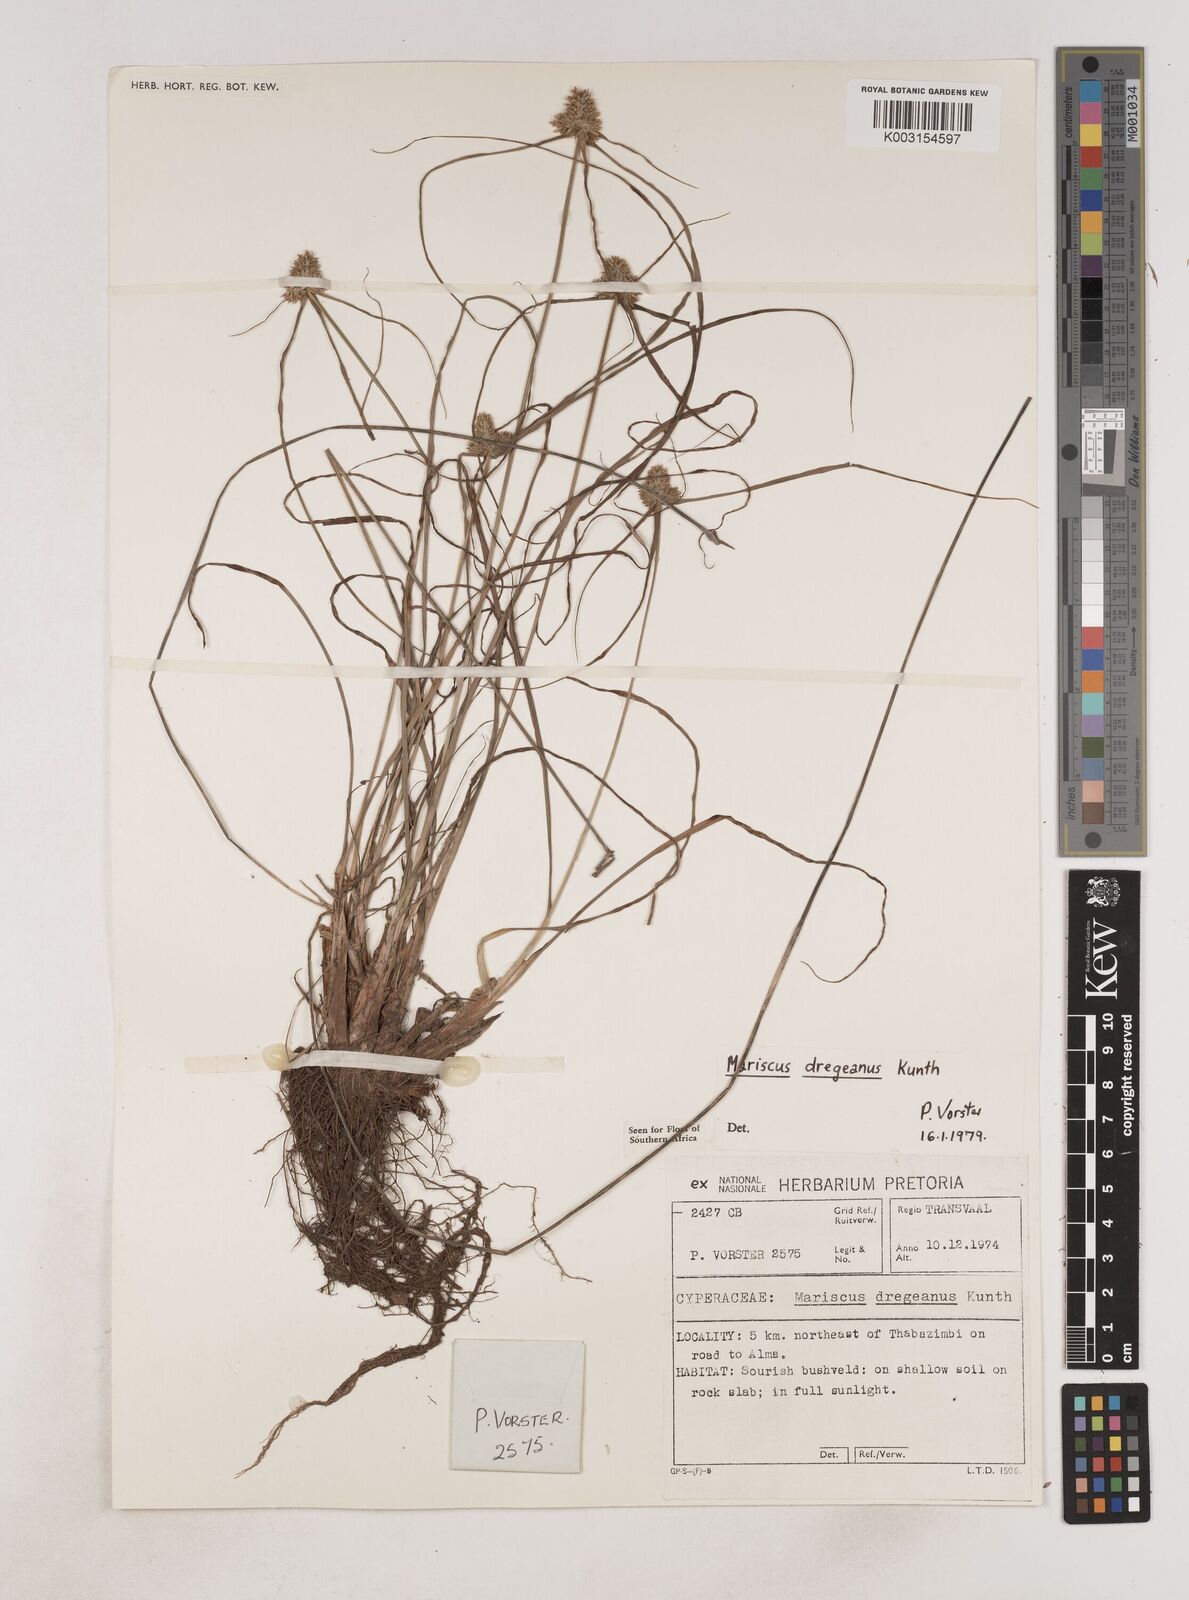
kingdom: Plantae
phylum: Tracheophyta
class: Liliopsida
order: Poales
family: Cyperaceae
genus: Cyperus
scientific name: Cyperus dubius
